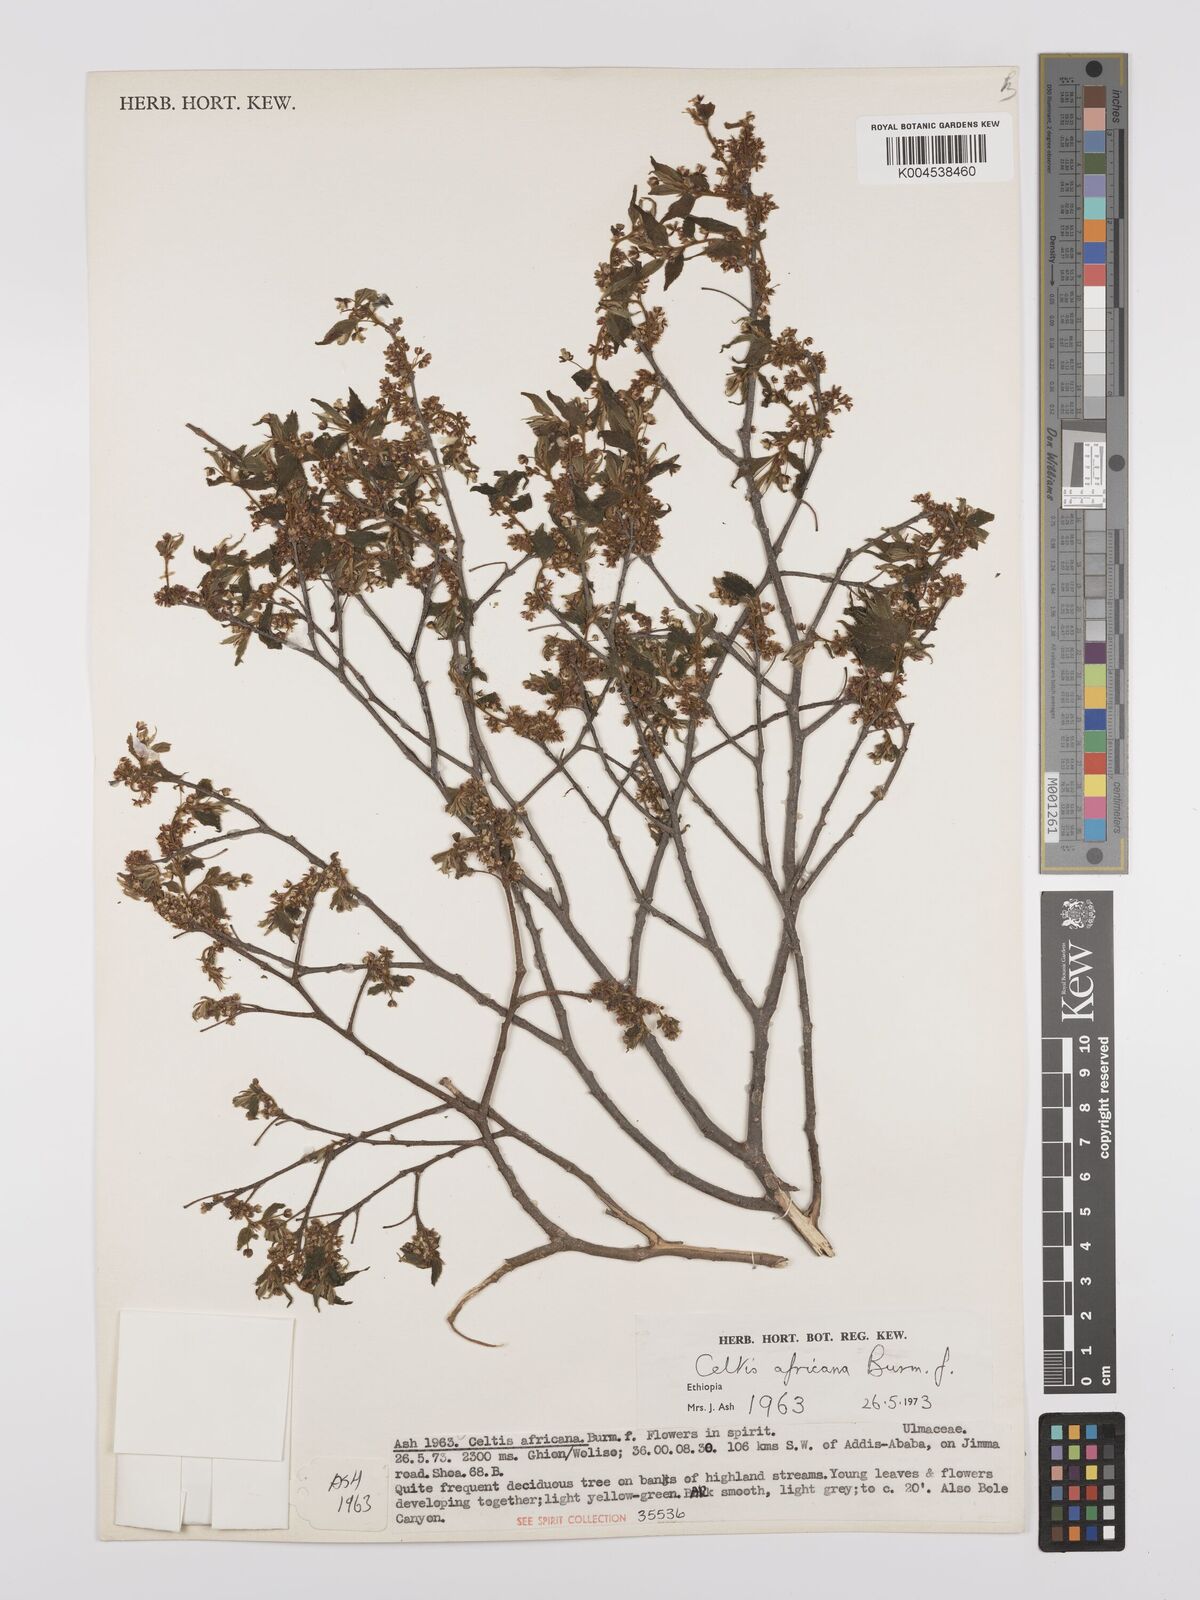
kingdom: Plantae
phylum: Tracheophyta
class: Magnoliopsida
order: Rosales
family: Cannabaceae
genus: Celtis
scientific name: Celtis africana
